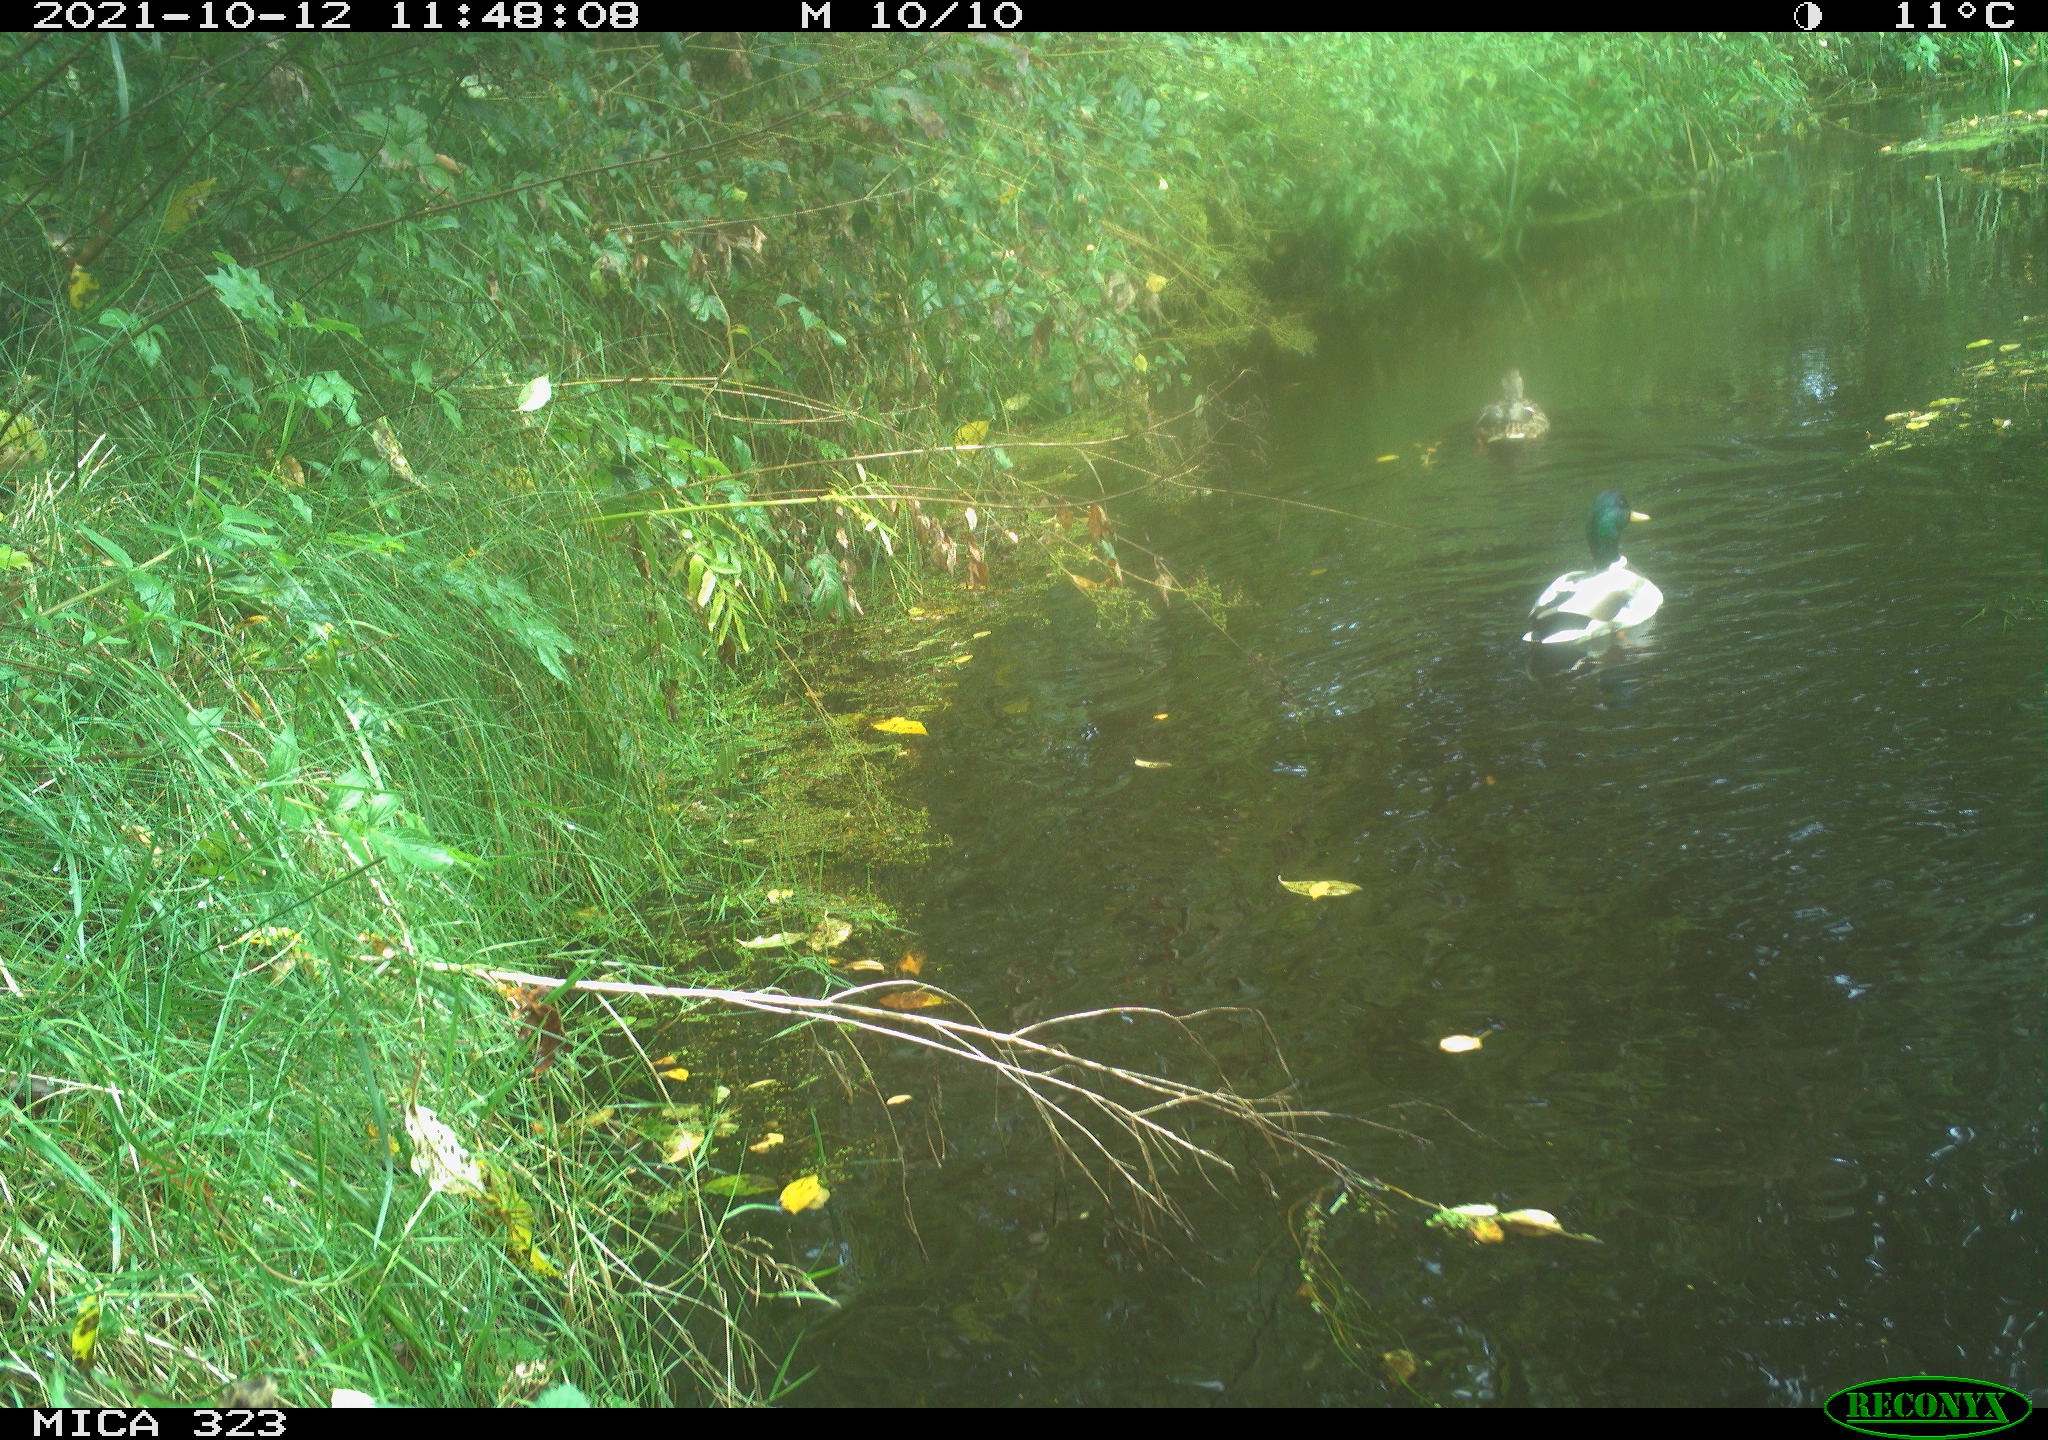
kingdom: Animalia
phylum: Chordata
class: Aves
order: Anseriformes
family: Anatidae
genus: Anas
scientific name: Anas platyrhynchos
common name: Mallard
